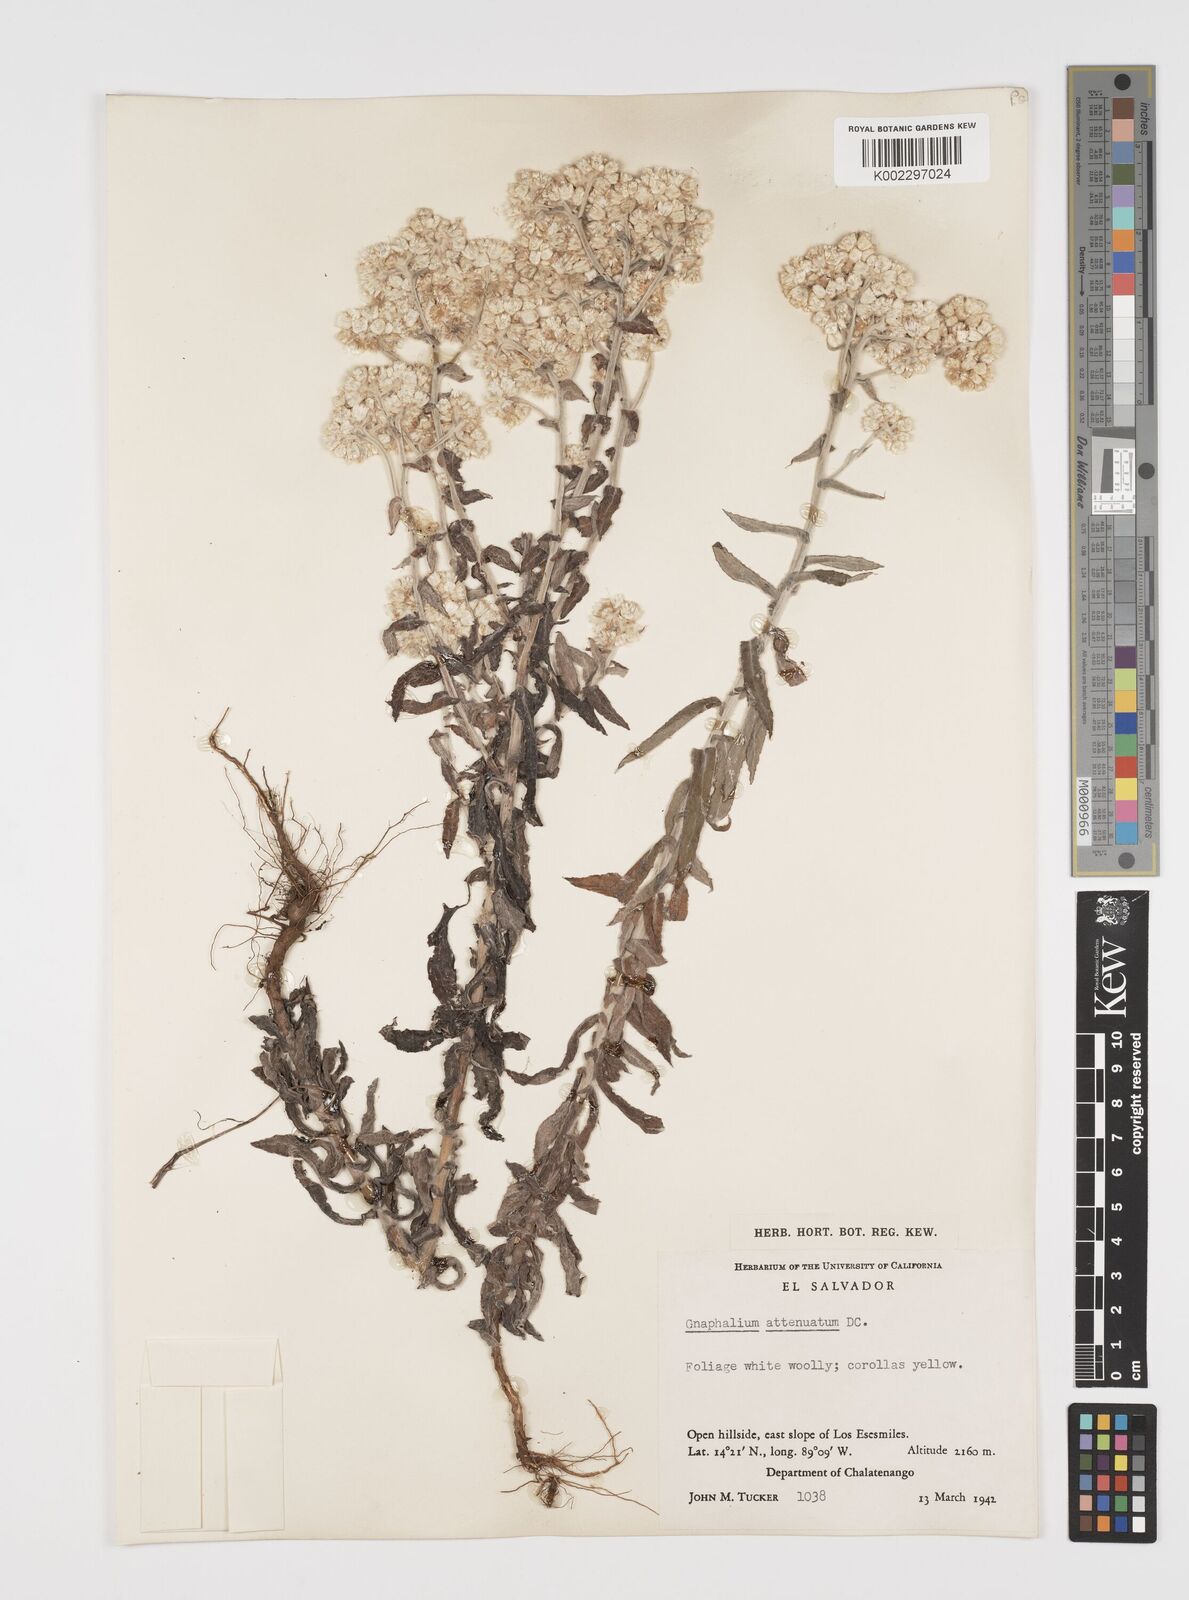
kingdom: Plantae
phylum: Tracheophyta
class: Magnoliopsida
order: Asterales
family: Asteraceae
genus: Pseudognaphalium
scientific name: Pseudognaphalium attenuatum
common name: Tapered cudweed
